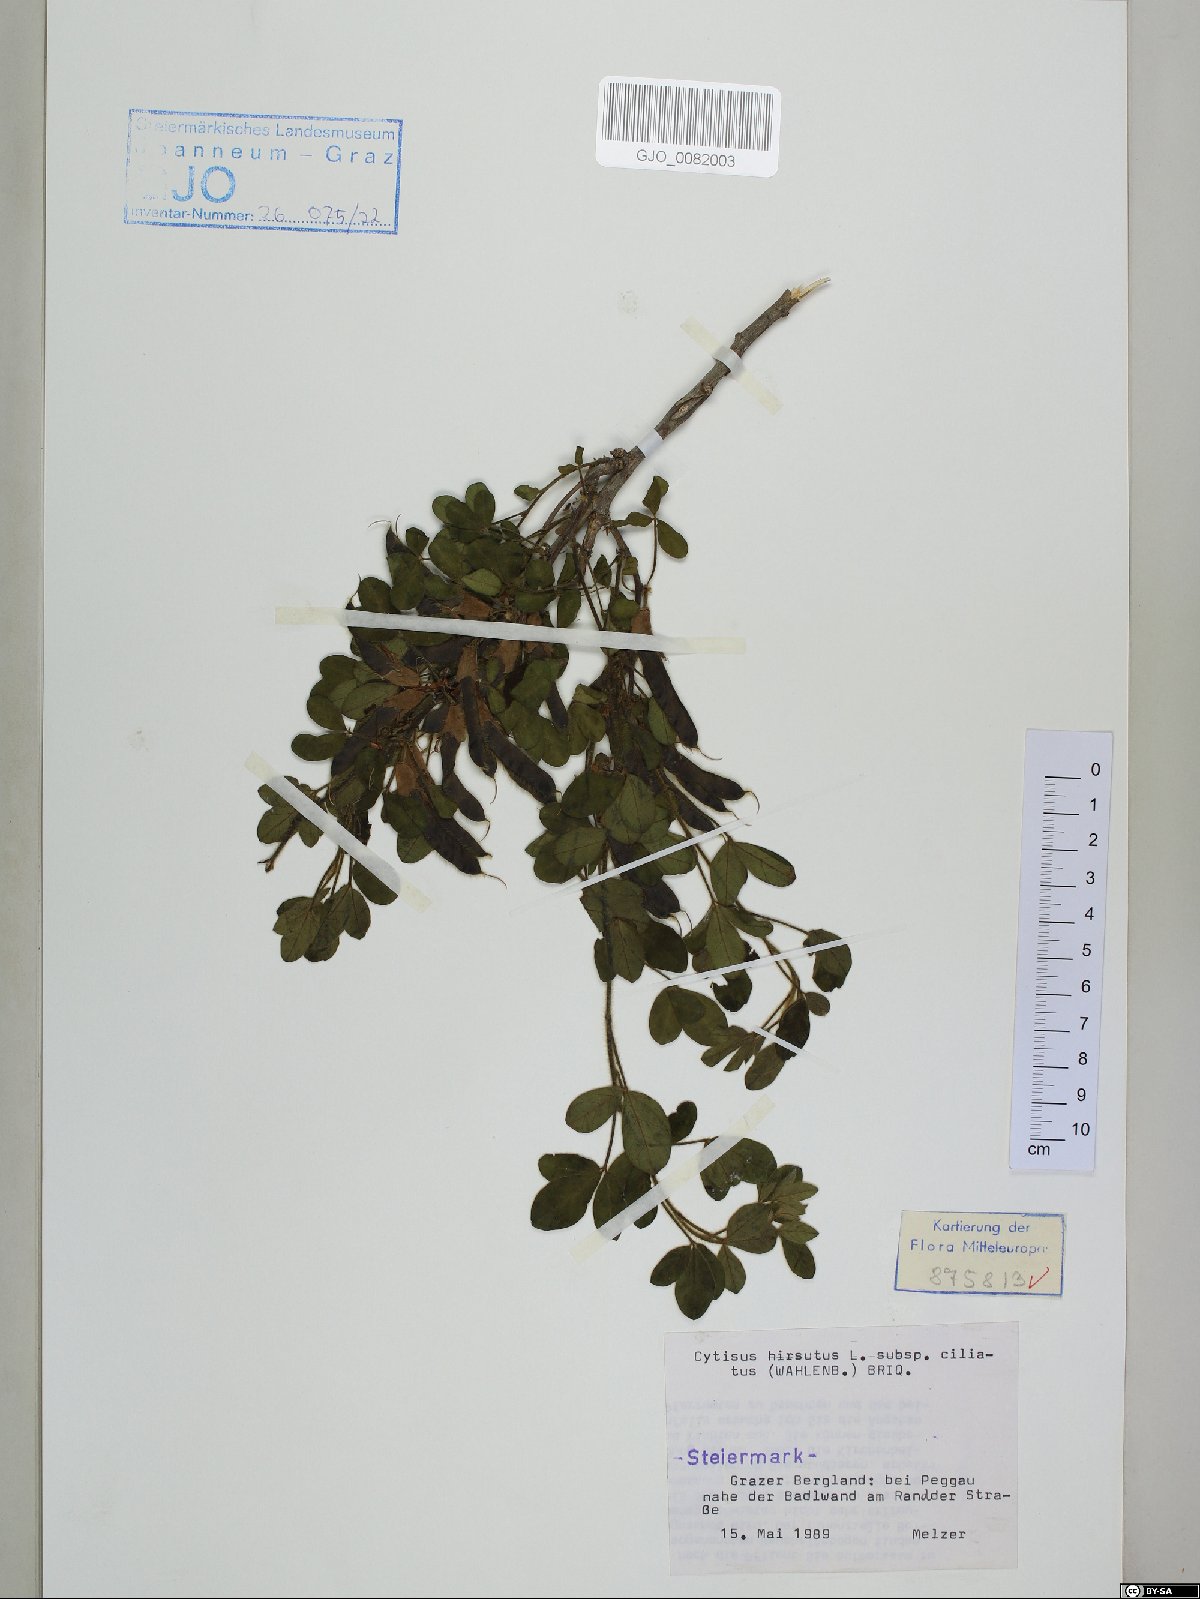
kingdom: Plantae
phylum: Tracheophyta
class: Magnoliopsida
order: Fabales
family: Fabaceae
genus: Chamaecytisus
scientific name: Chamaecytisus hirsutus
